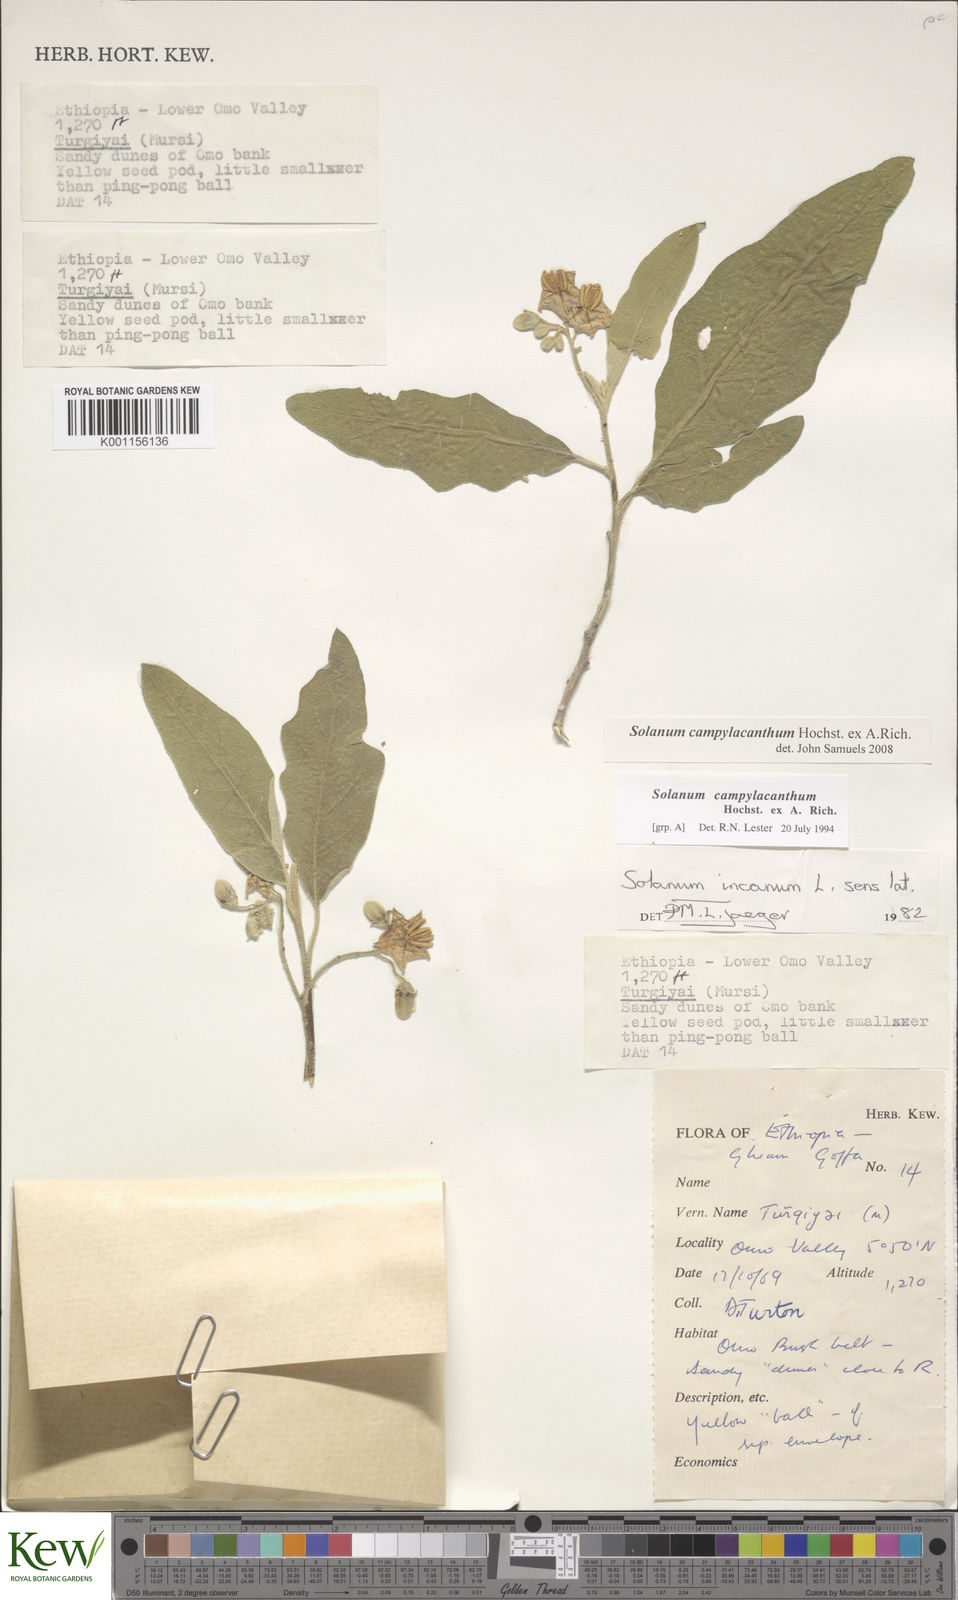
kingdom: Plantae
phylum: Tracheophyta
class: Magnoliopsida
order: Solanales
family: Solanaceae
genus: Solanum
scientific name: Solanum campylacanthum
